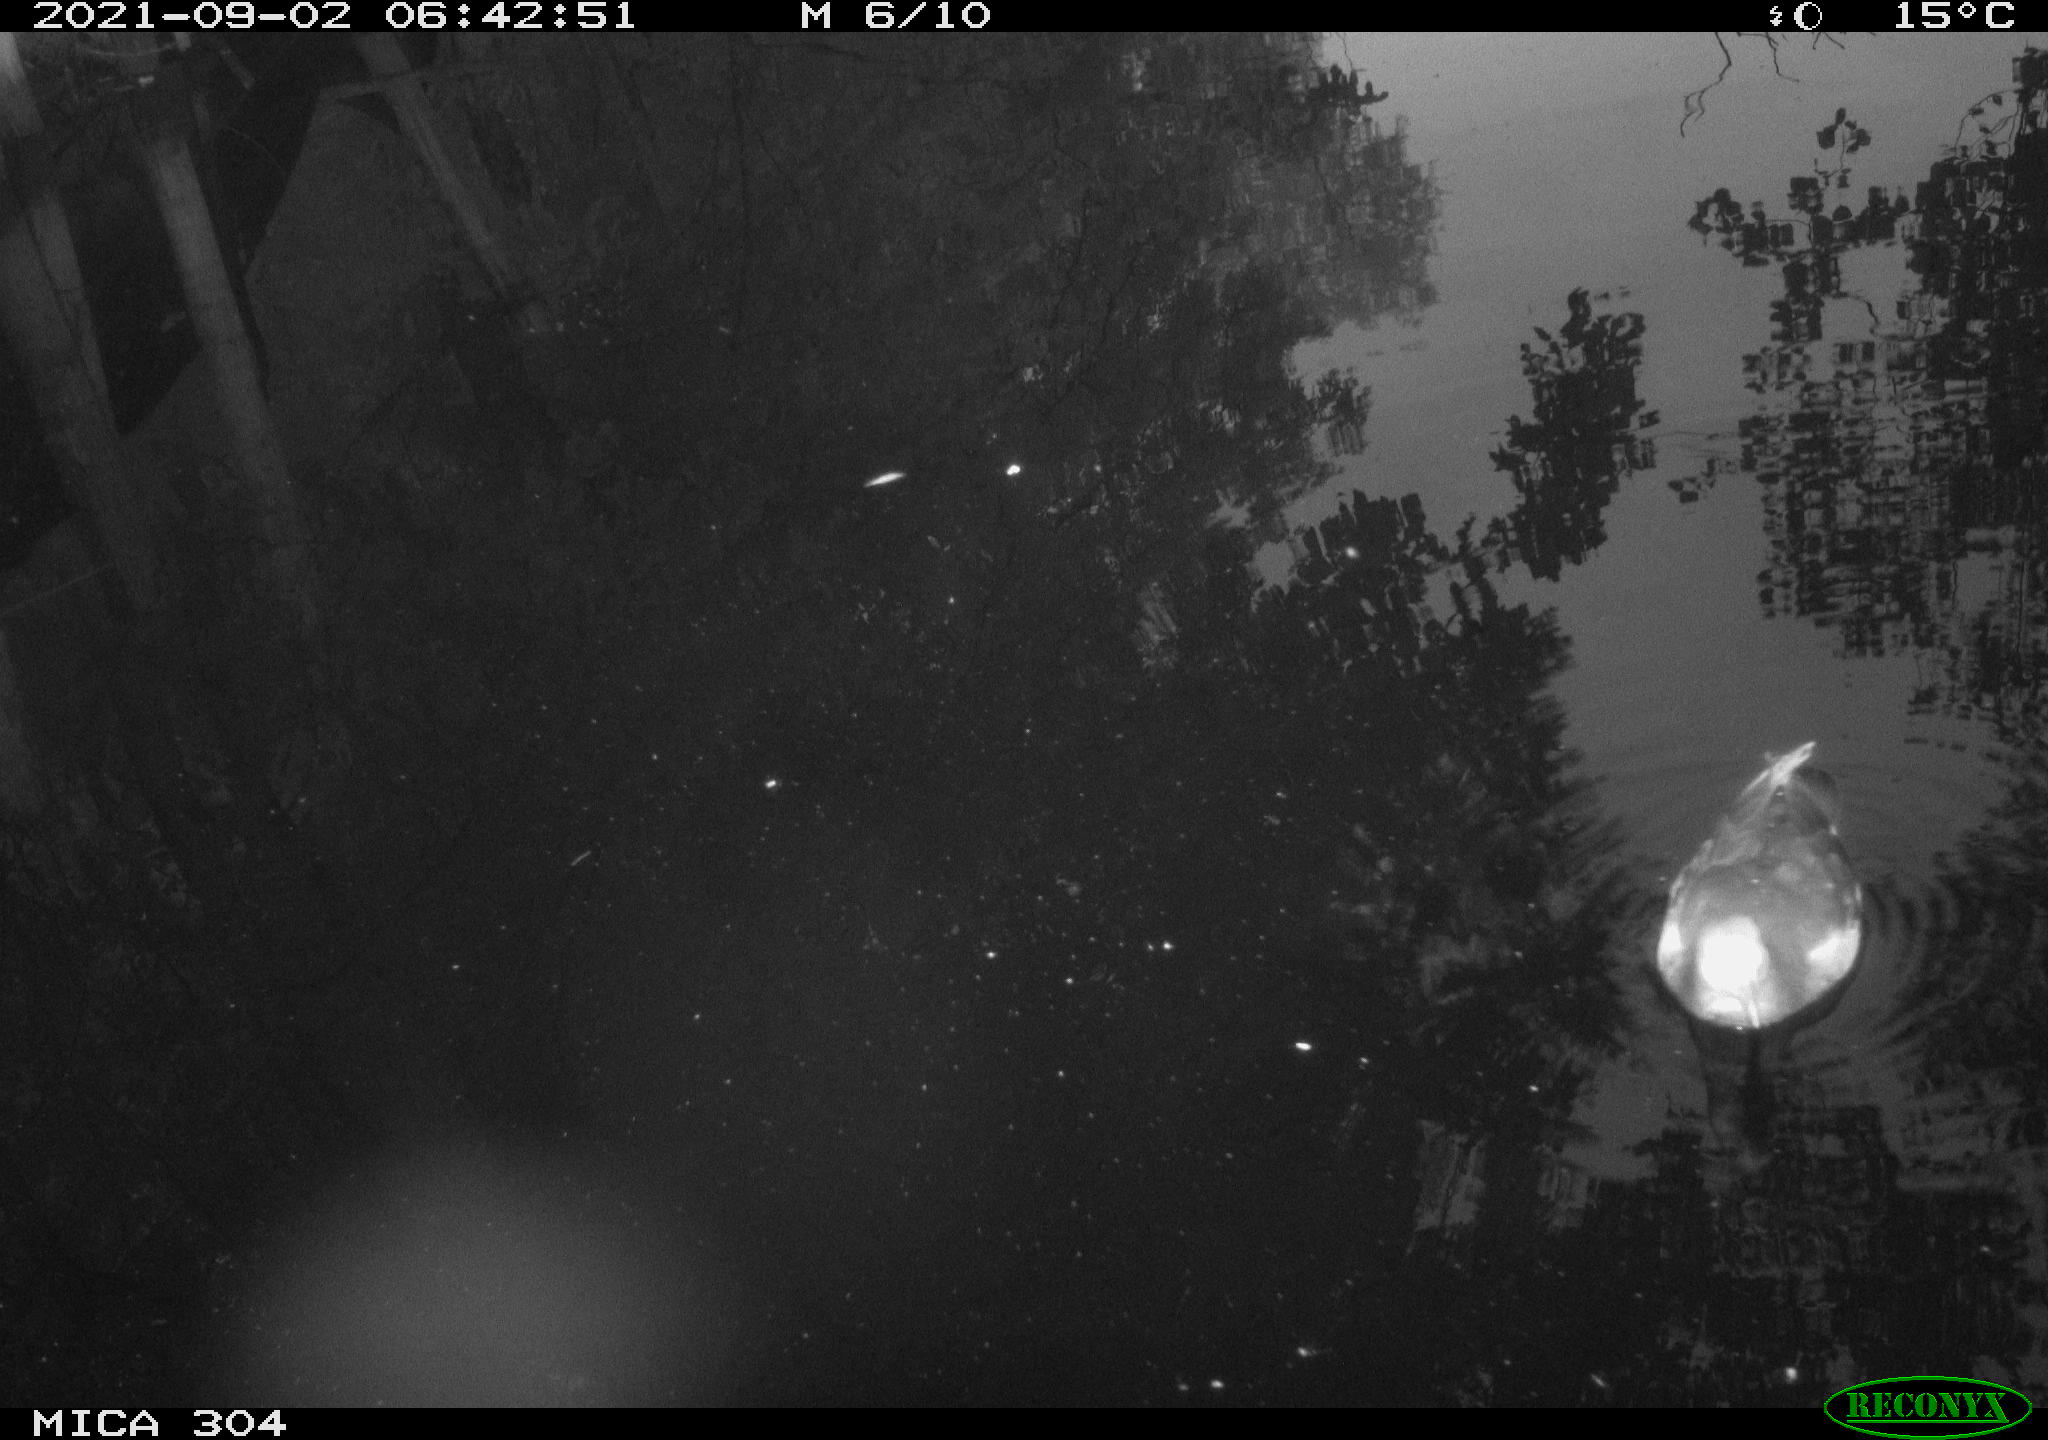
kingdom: Animalia
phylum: Chordata
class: Aves
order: Gruiformes
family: Rallidae
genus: Gallinula
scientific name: Gallinula chloropus
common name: Common moorhen
